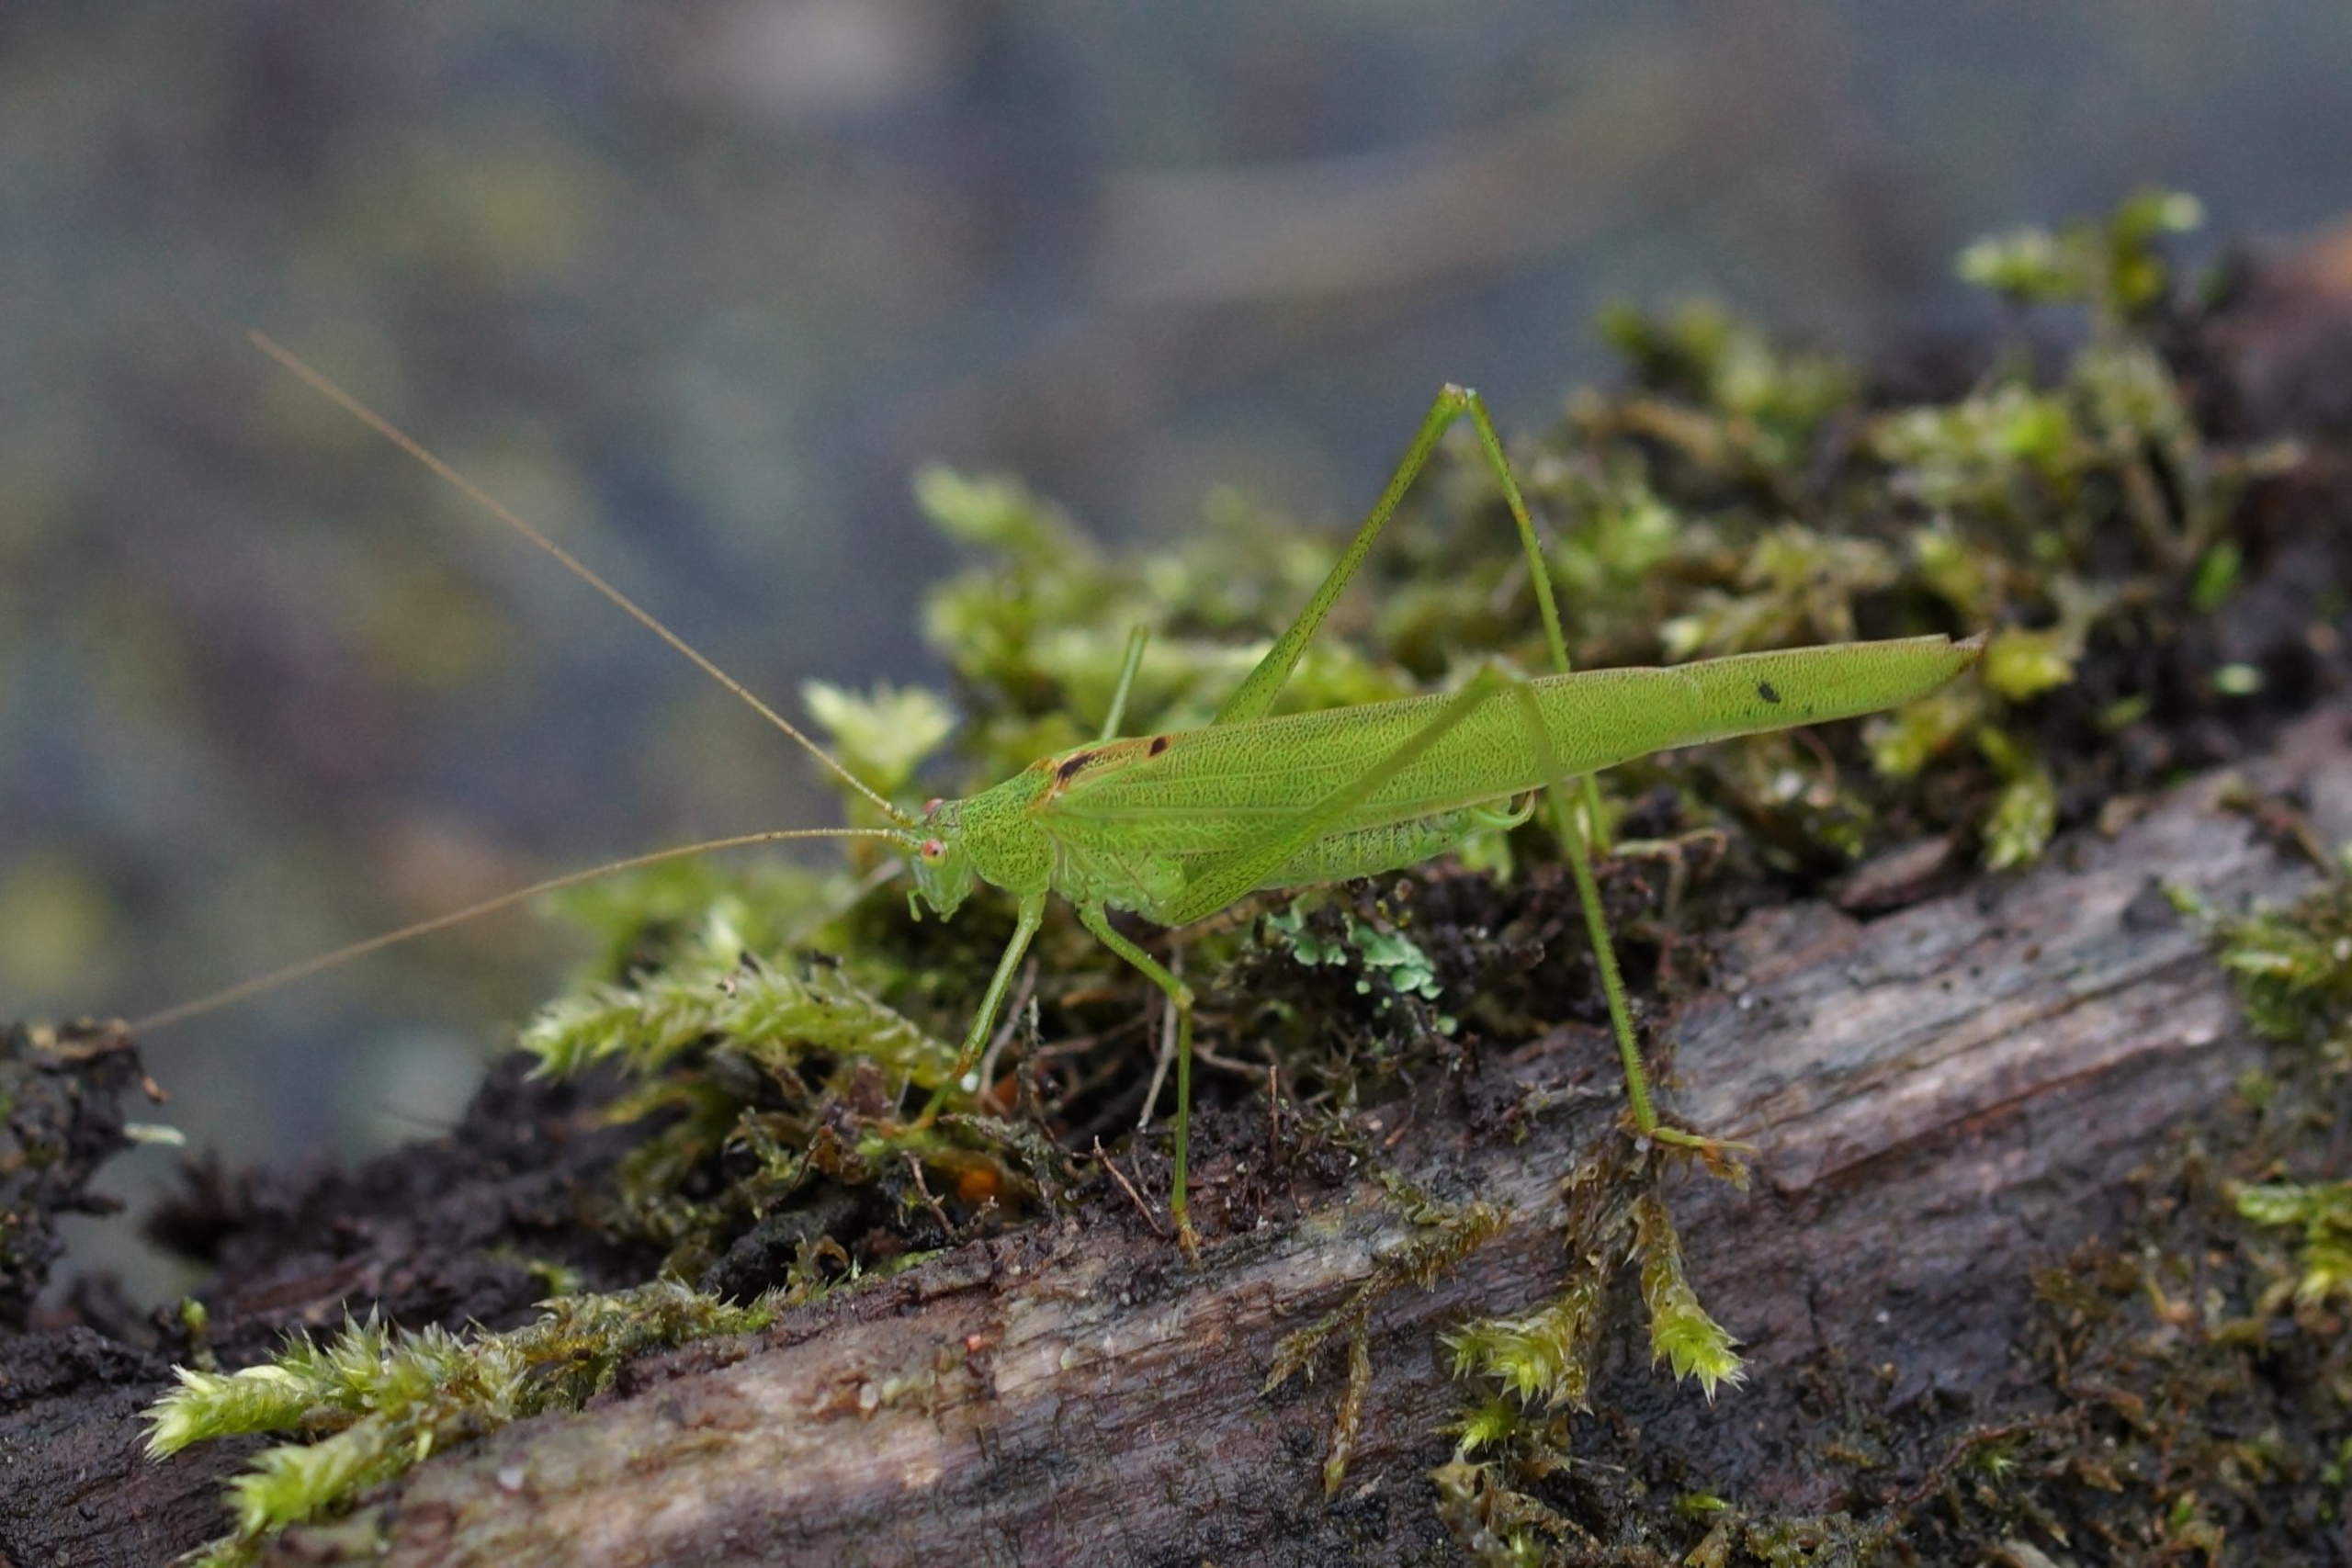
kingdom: Animalia
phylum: Arthropoda
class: Insecta
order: Orthoptera
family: Tettigoniidae
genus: Phaneroptera
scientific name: Phaneroptera falcata
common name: Seglgræshoppe
